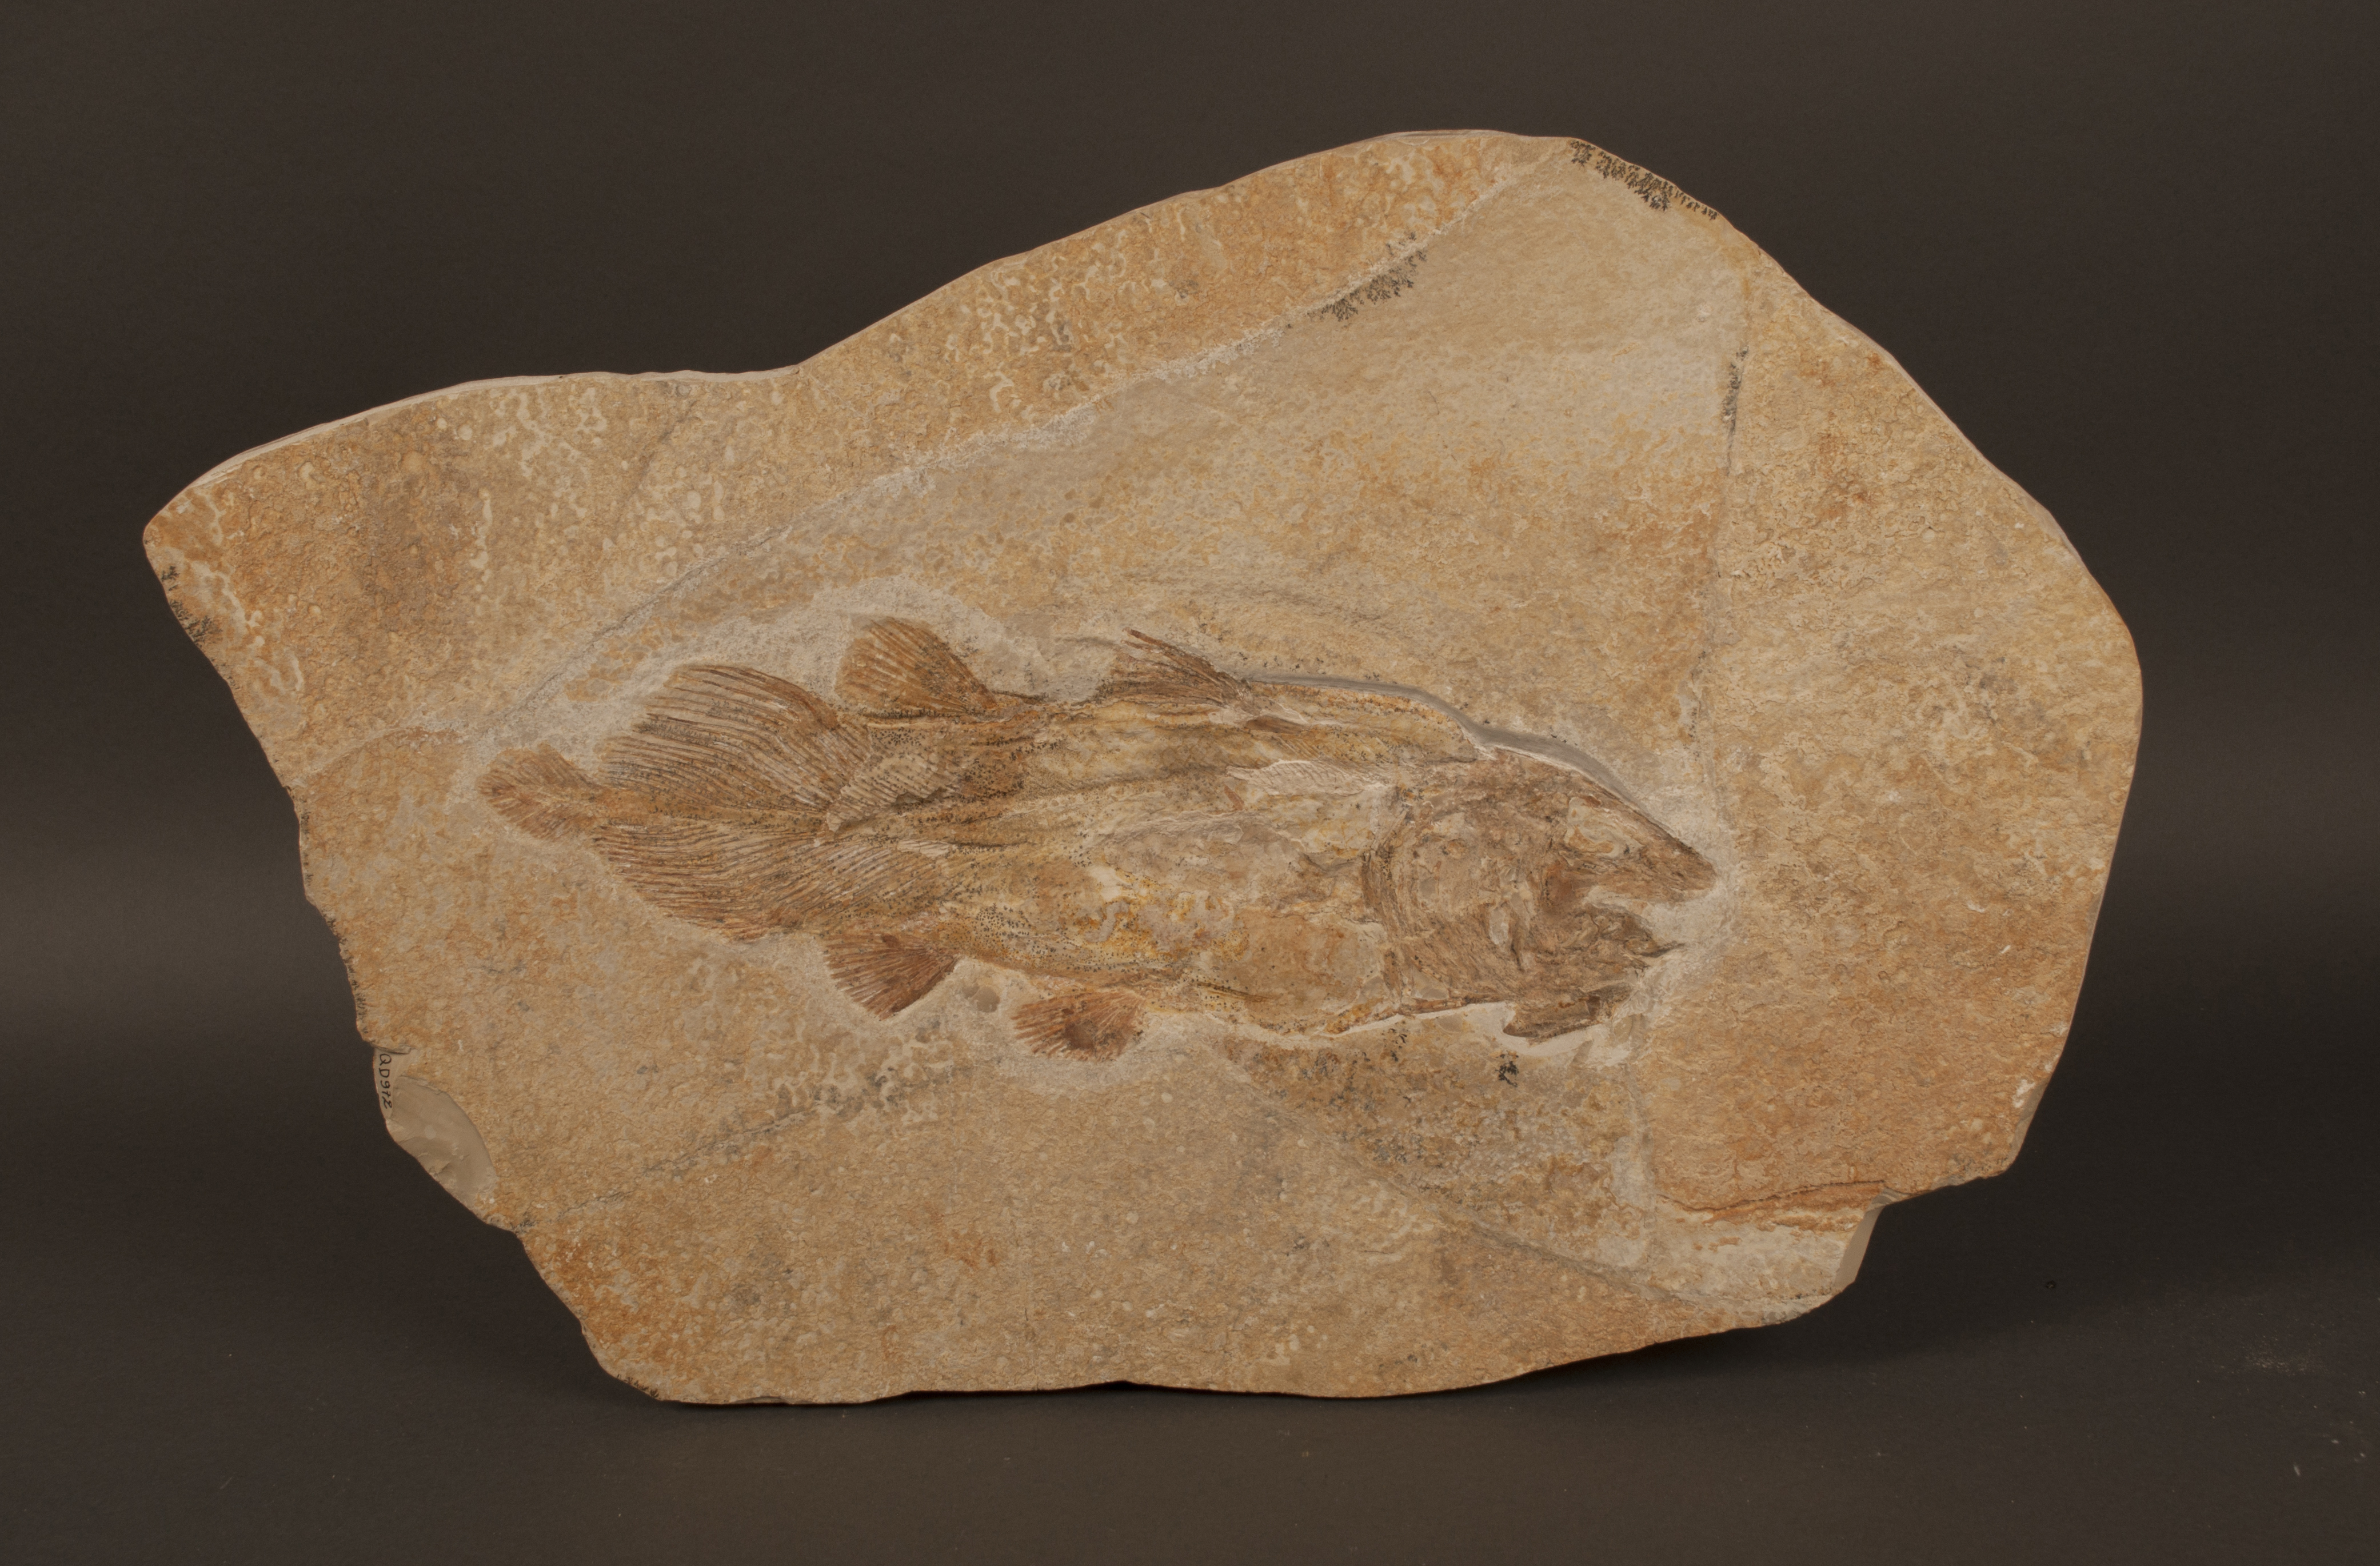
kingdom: Animalia
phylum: Chordata
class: Coelacanthi
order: Coelacanthiformes
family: Mawsoniidae
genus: Libys
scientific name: Libys superbus
